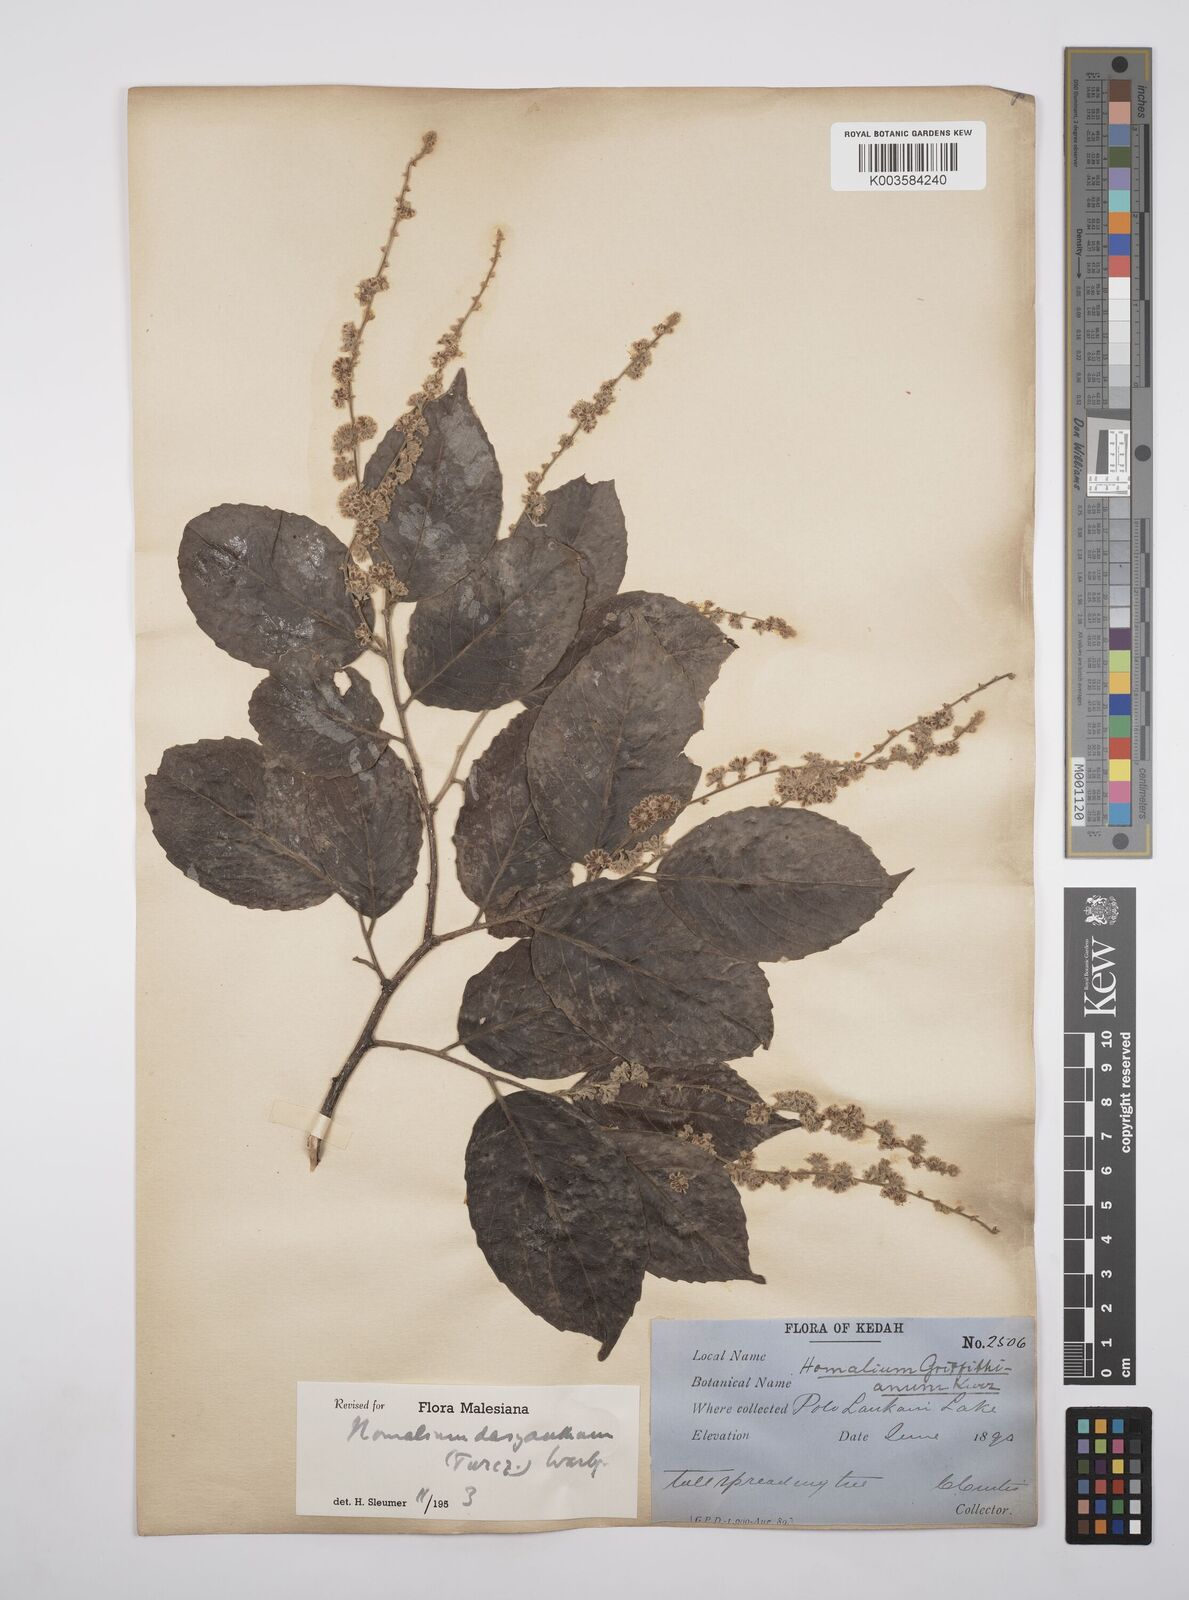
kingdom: Plantae
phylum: Tracheophyta
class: Magnoliopsida
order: Malpighiales
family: Salicaceae
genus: Homalium
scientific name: Homalium dasyanthum
